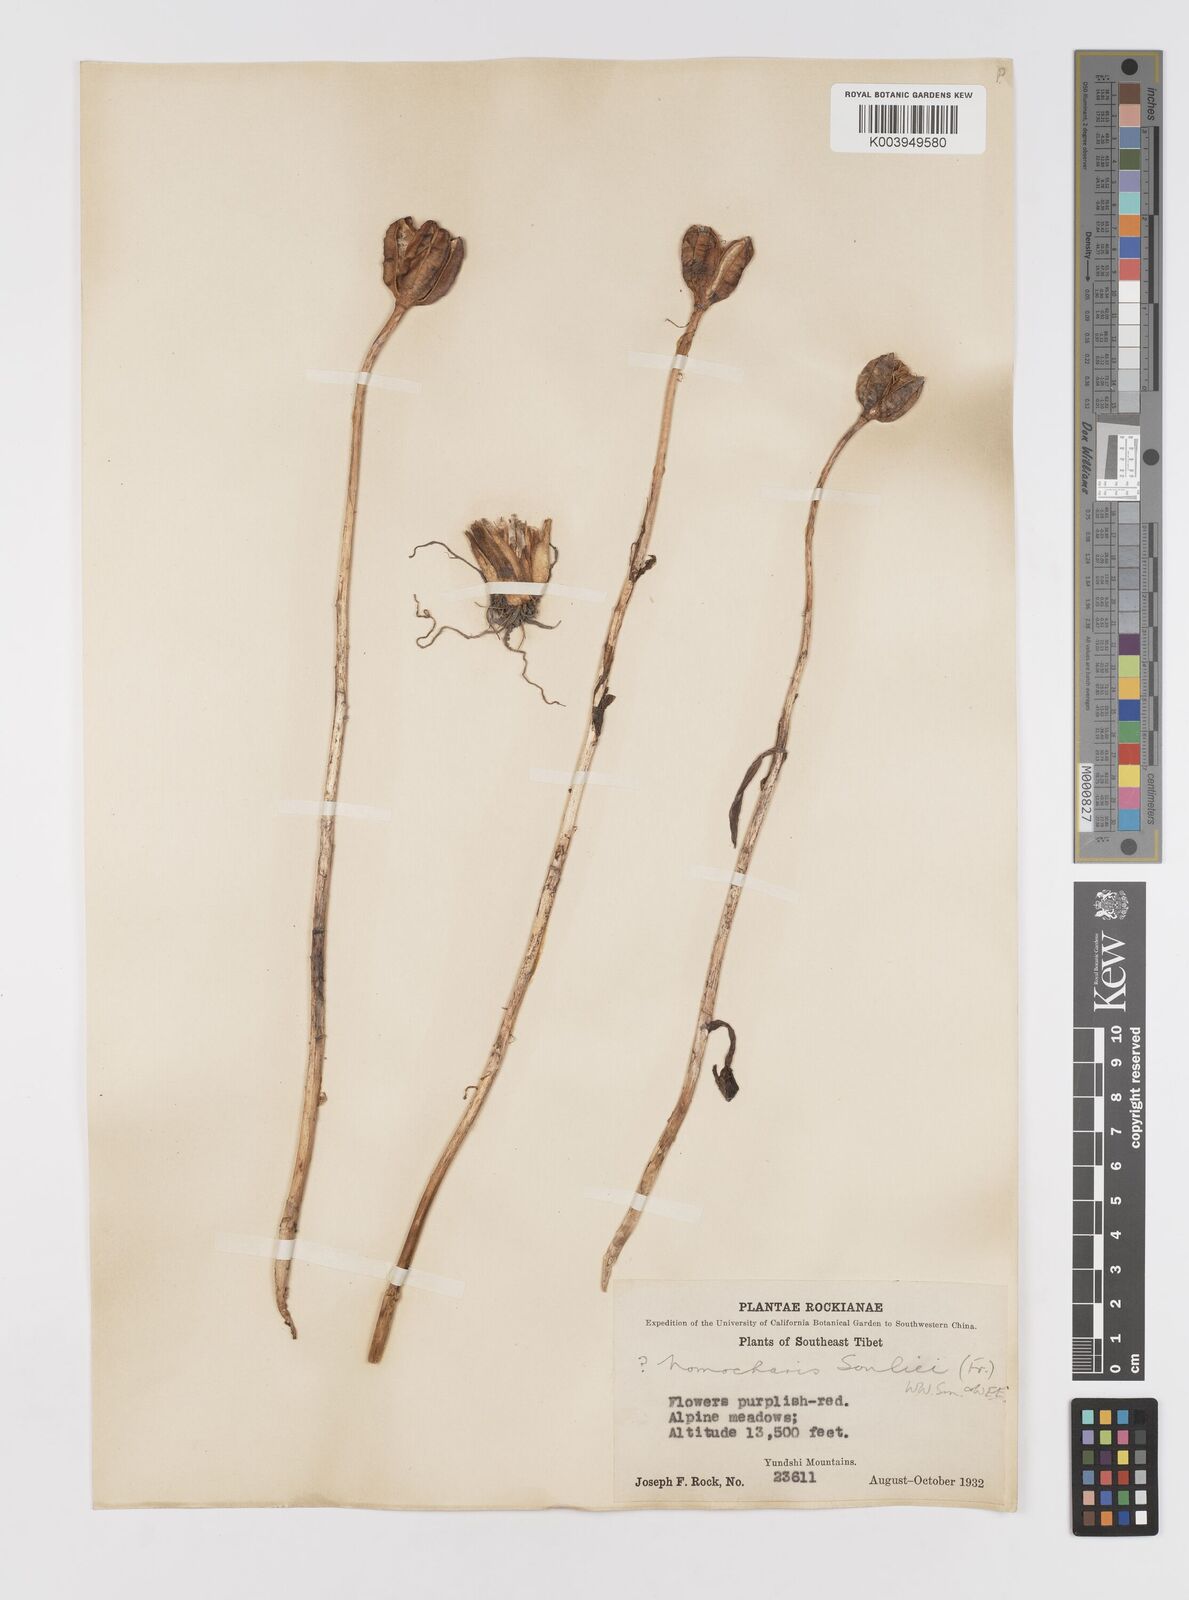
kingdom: Plantae
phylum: Tracheophyta
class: Liliopsida
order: Liliales
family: Liliaceae
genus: Lilium
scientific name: Lilium souliei
